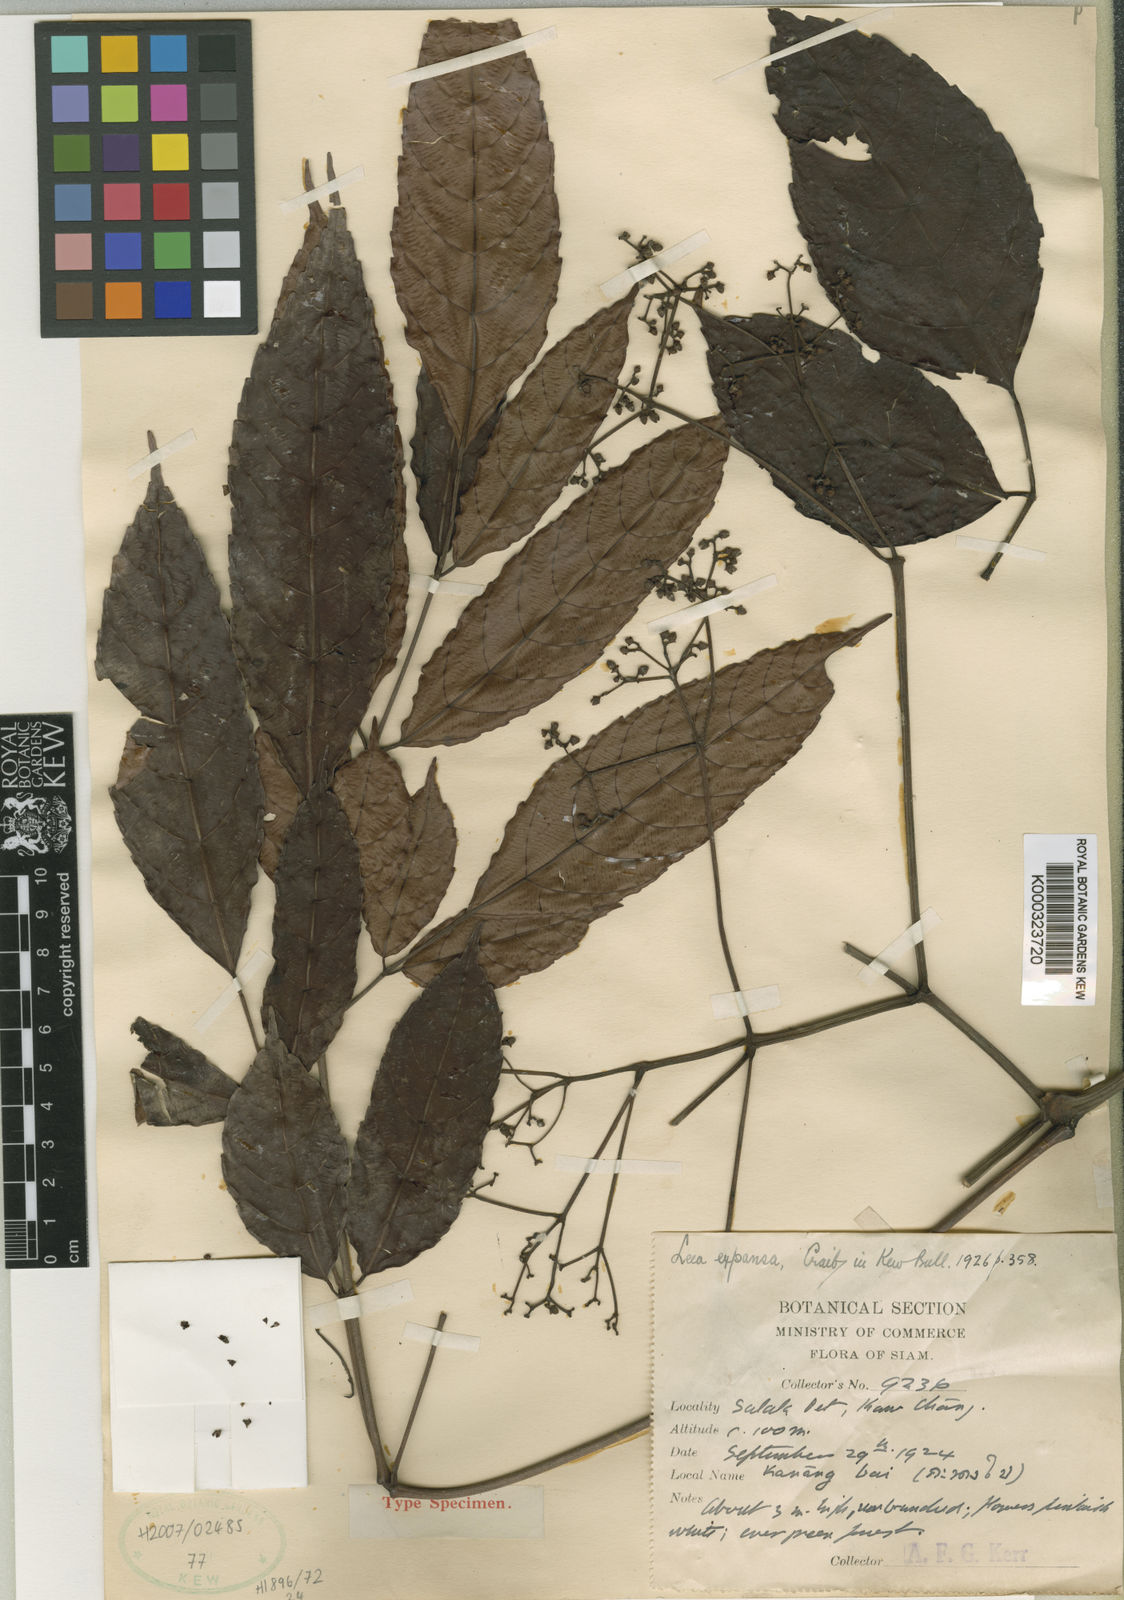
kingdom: Plantae
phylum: Tracheophyta
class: Magnoliopsida
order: Vitales
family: Vitaceae
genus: Leea
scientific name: Leea indica
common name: Bandicoot-berry
